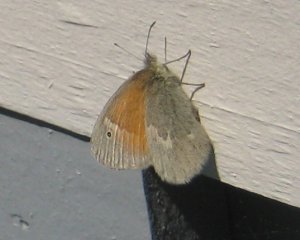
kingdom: Animalia
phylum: Arthropoda
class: Insecta
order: Lepidoptera
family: Nymphalidae
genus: Coenonympha
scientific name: Coenonympha tullia
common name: Large Heath
